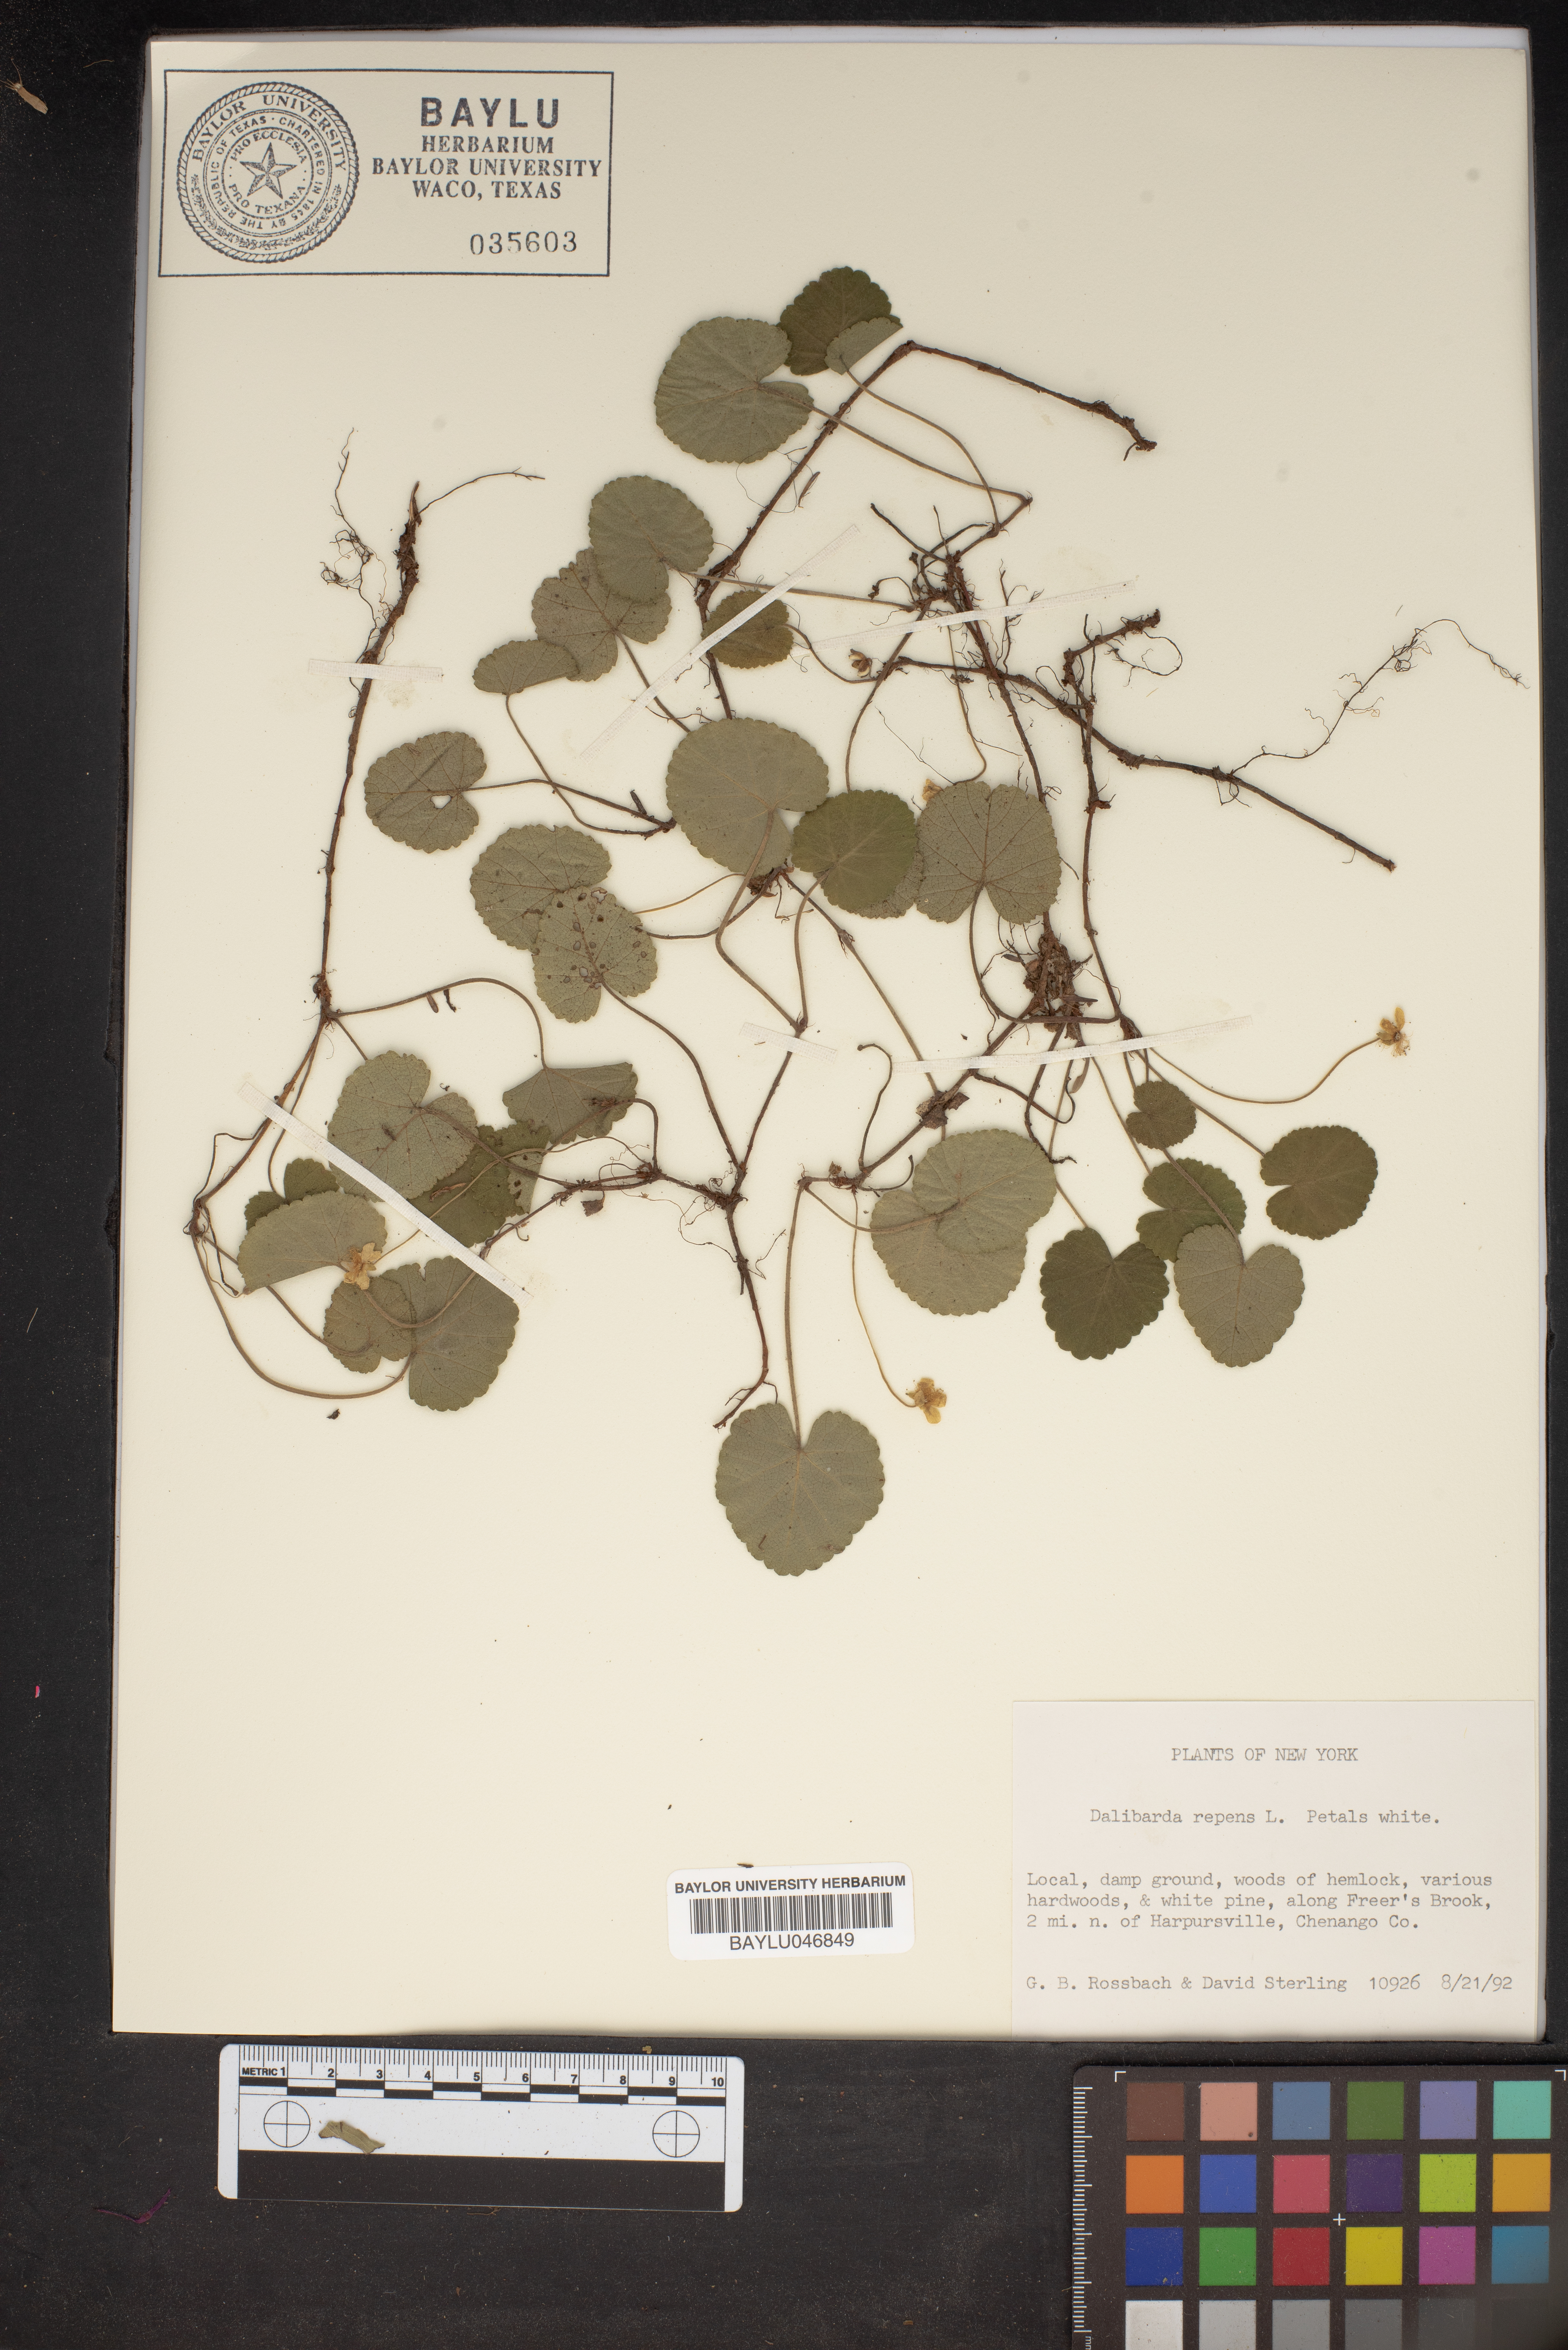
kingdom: Plantae
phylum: Tracheophyta
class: Magnoliopsida
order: Rosales
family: Rosaceae
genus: Dalibarda
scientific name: Dalibarda repens
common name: Dewdrop
